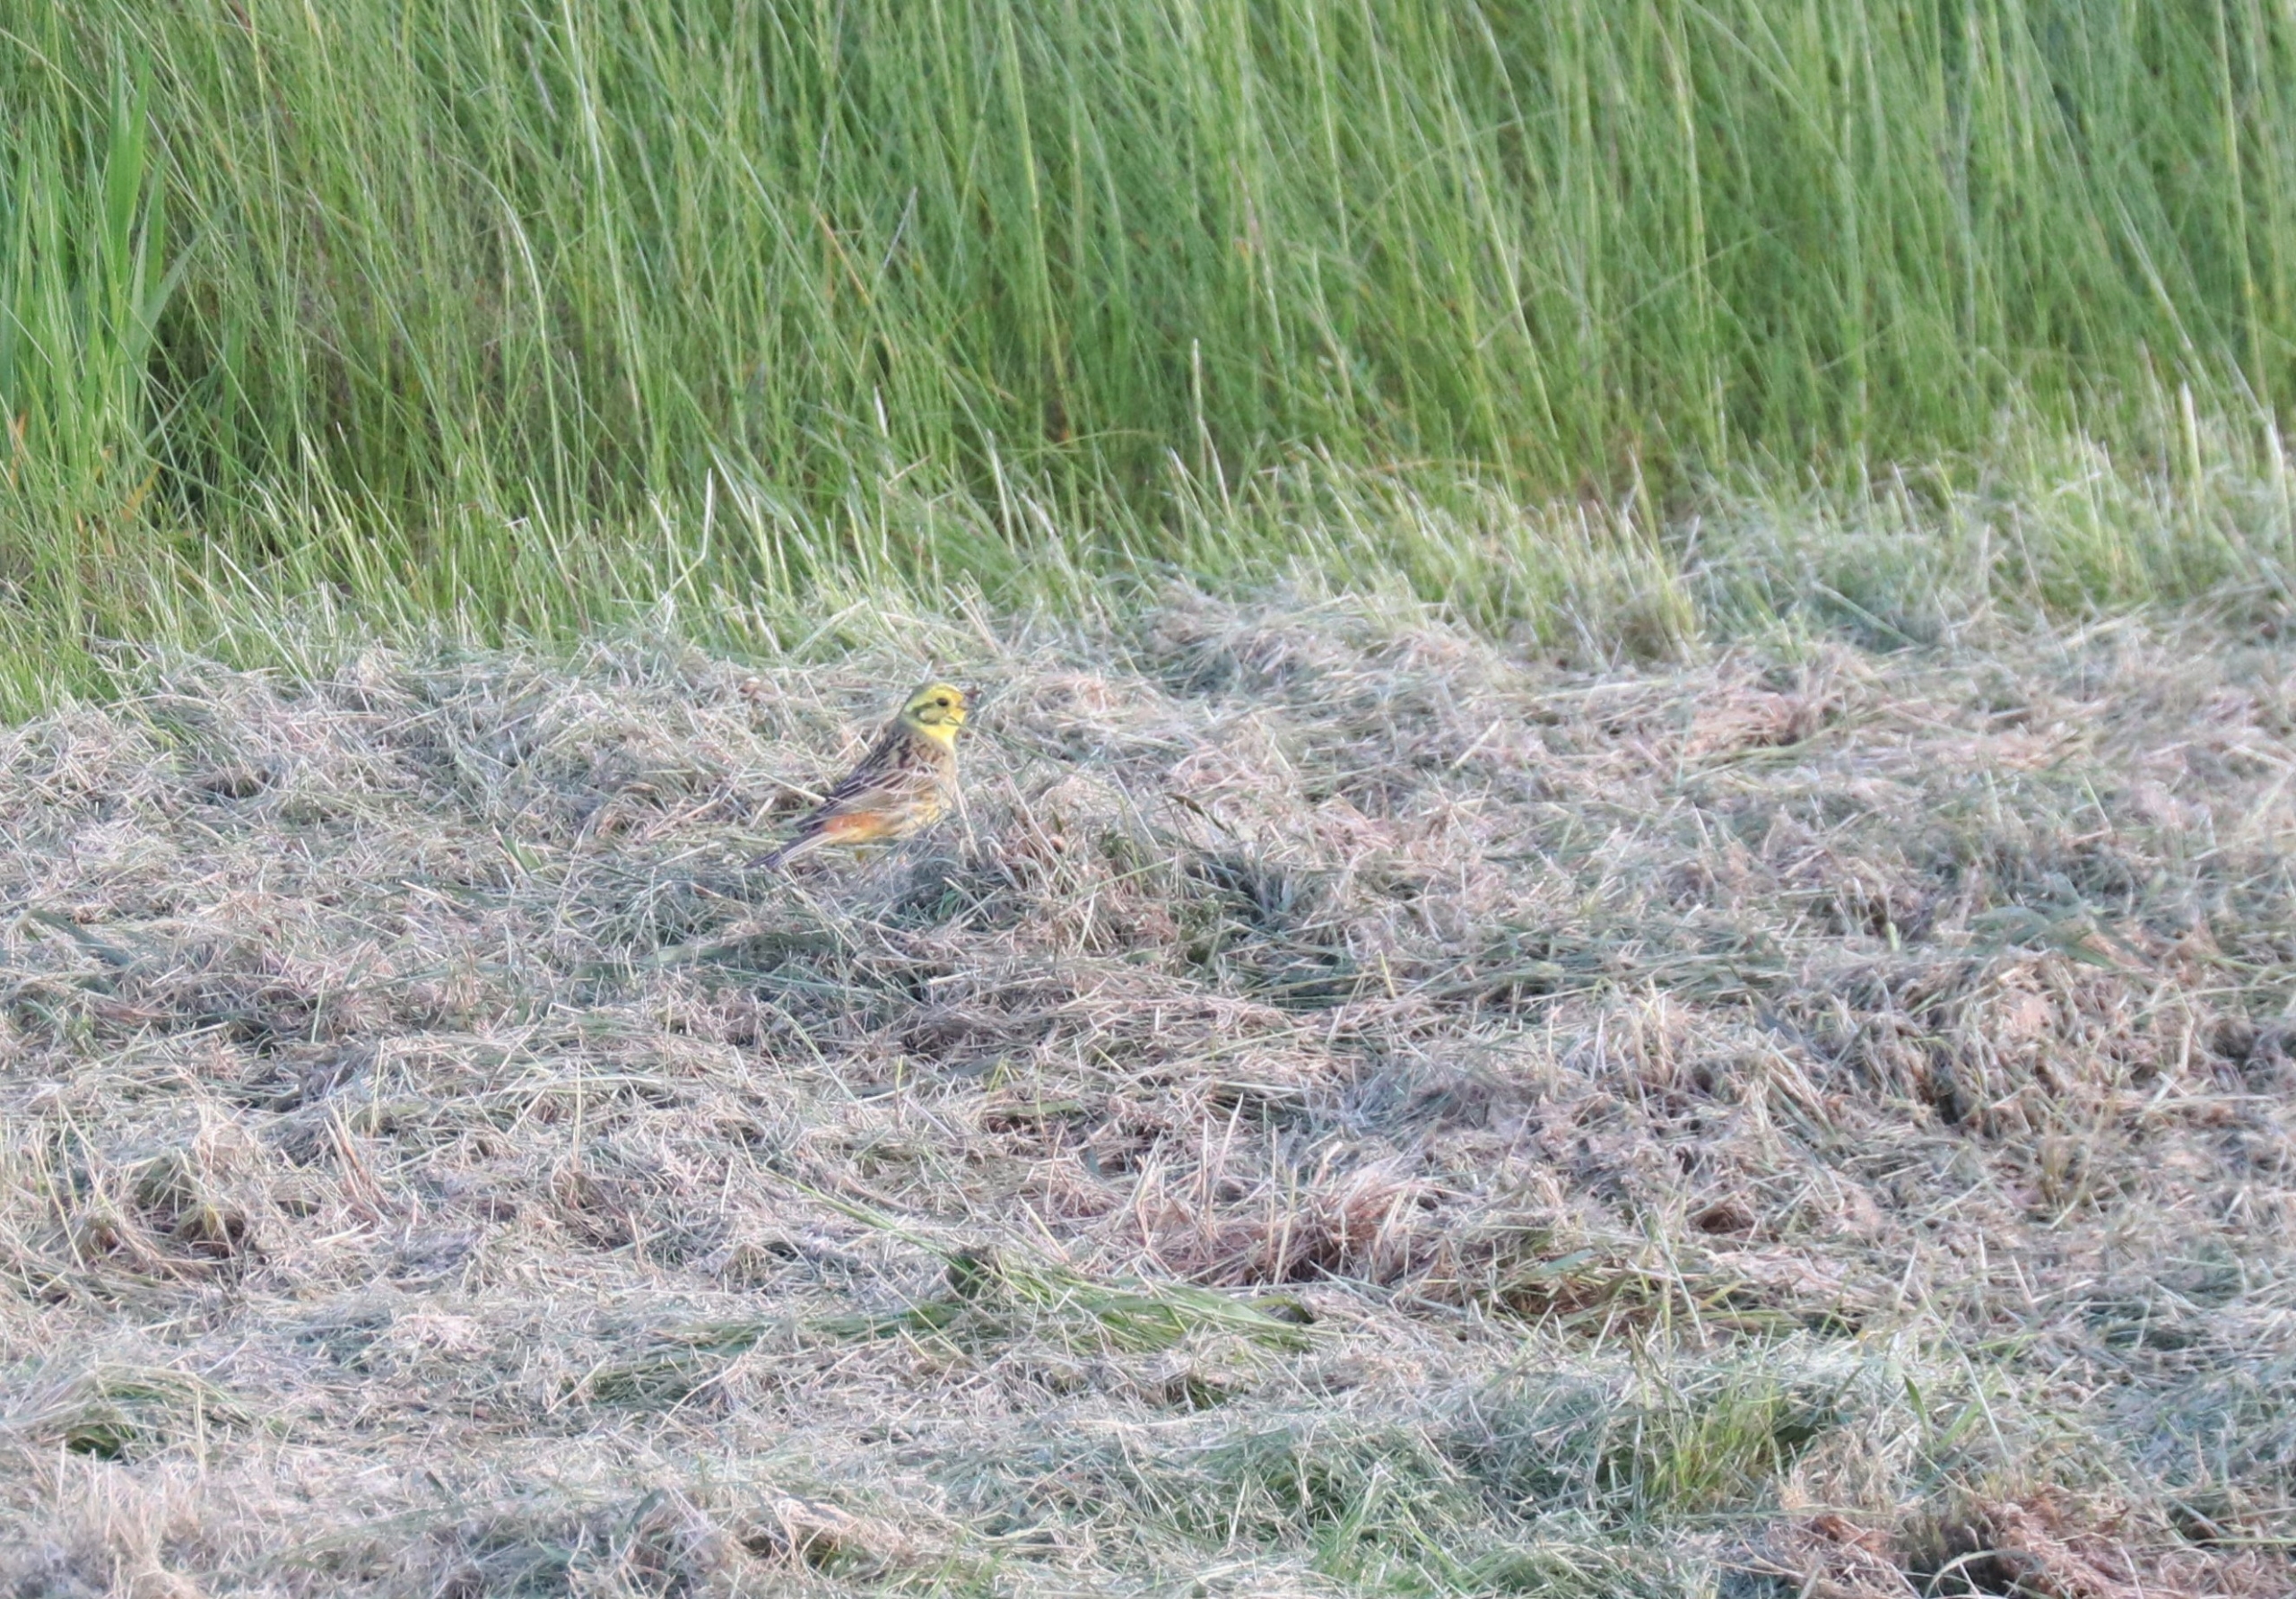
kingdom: Animalia
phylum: Chordata
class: Aves
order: Passeriformes
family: Emberizidae
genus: Emberiza
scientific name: Emberiza citrinella
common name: Gulspurv
